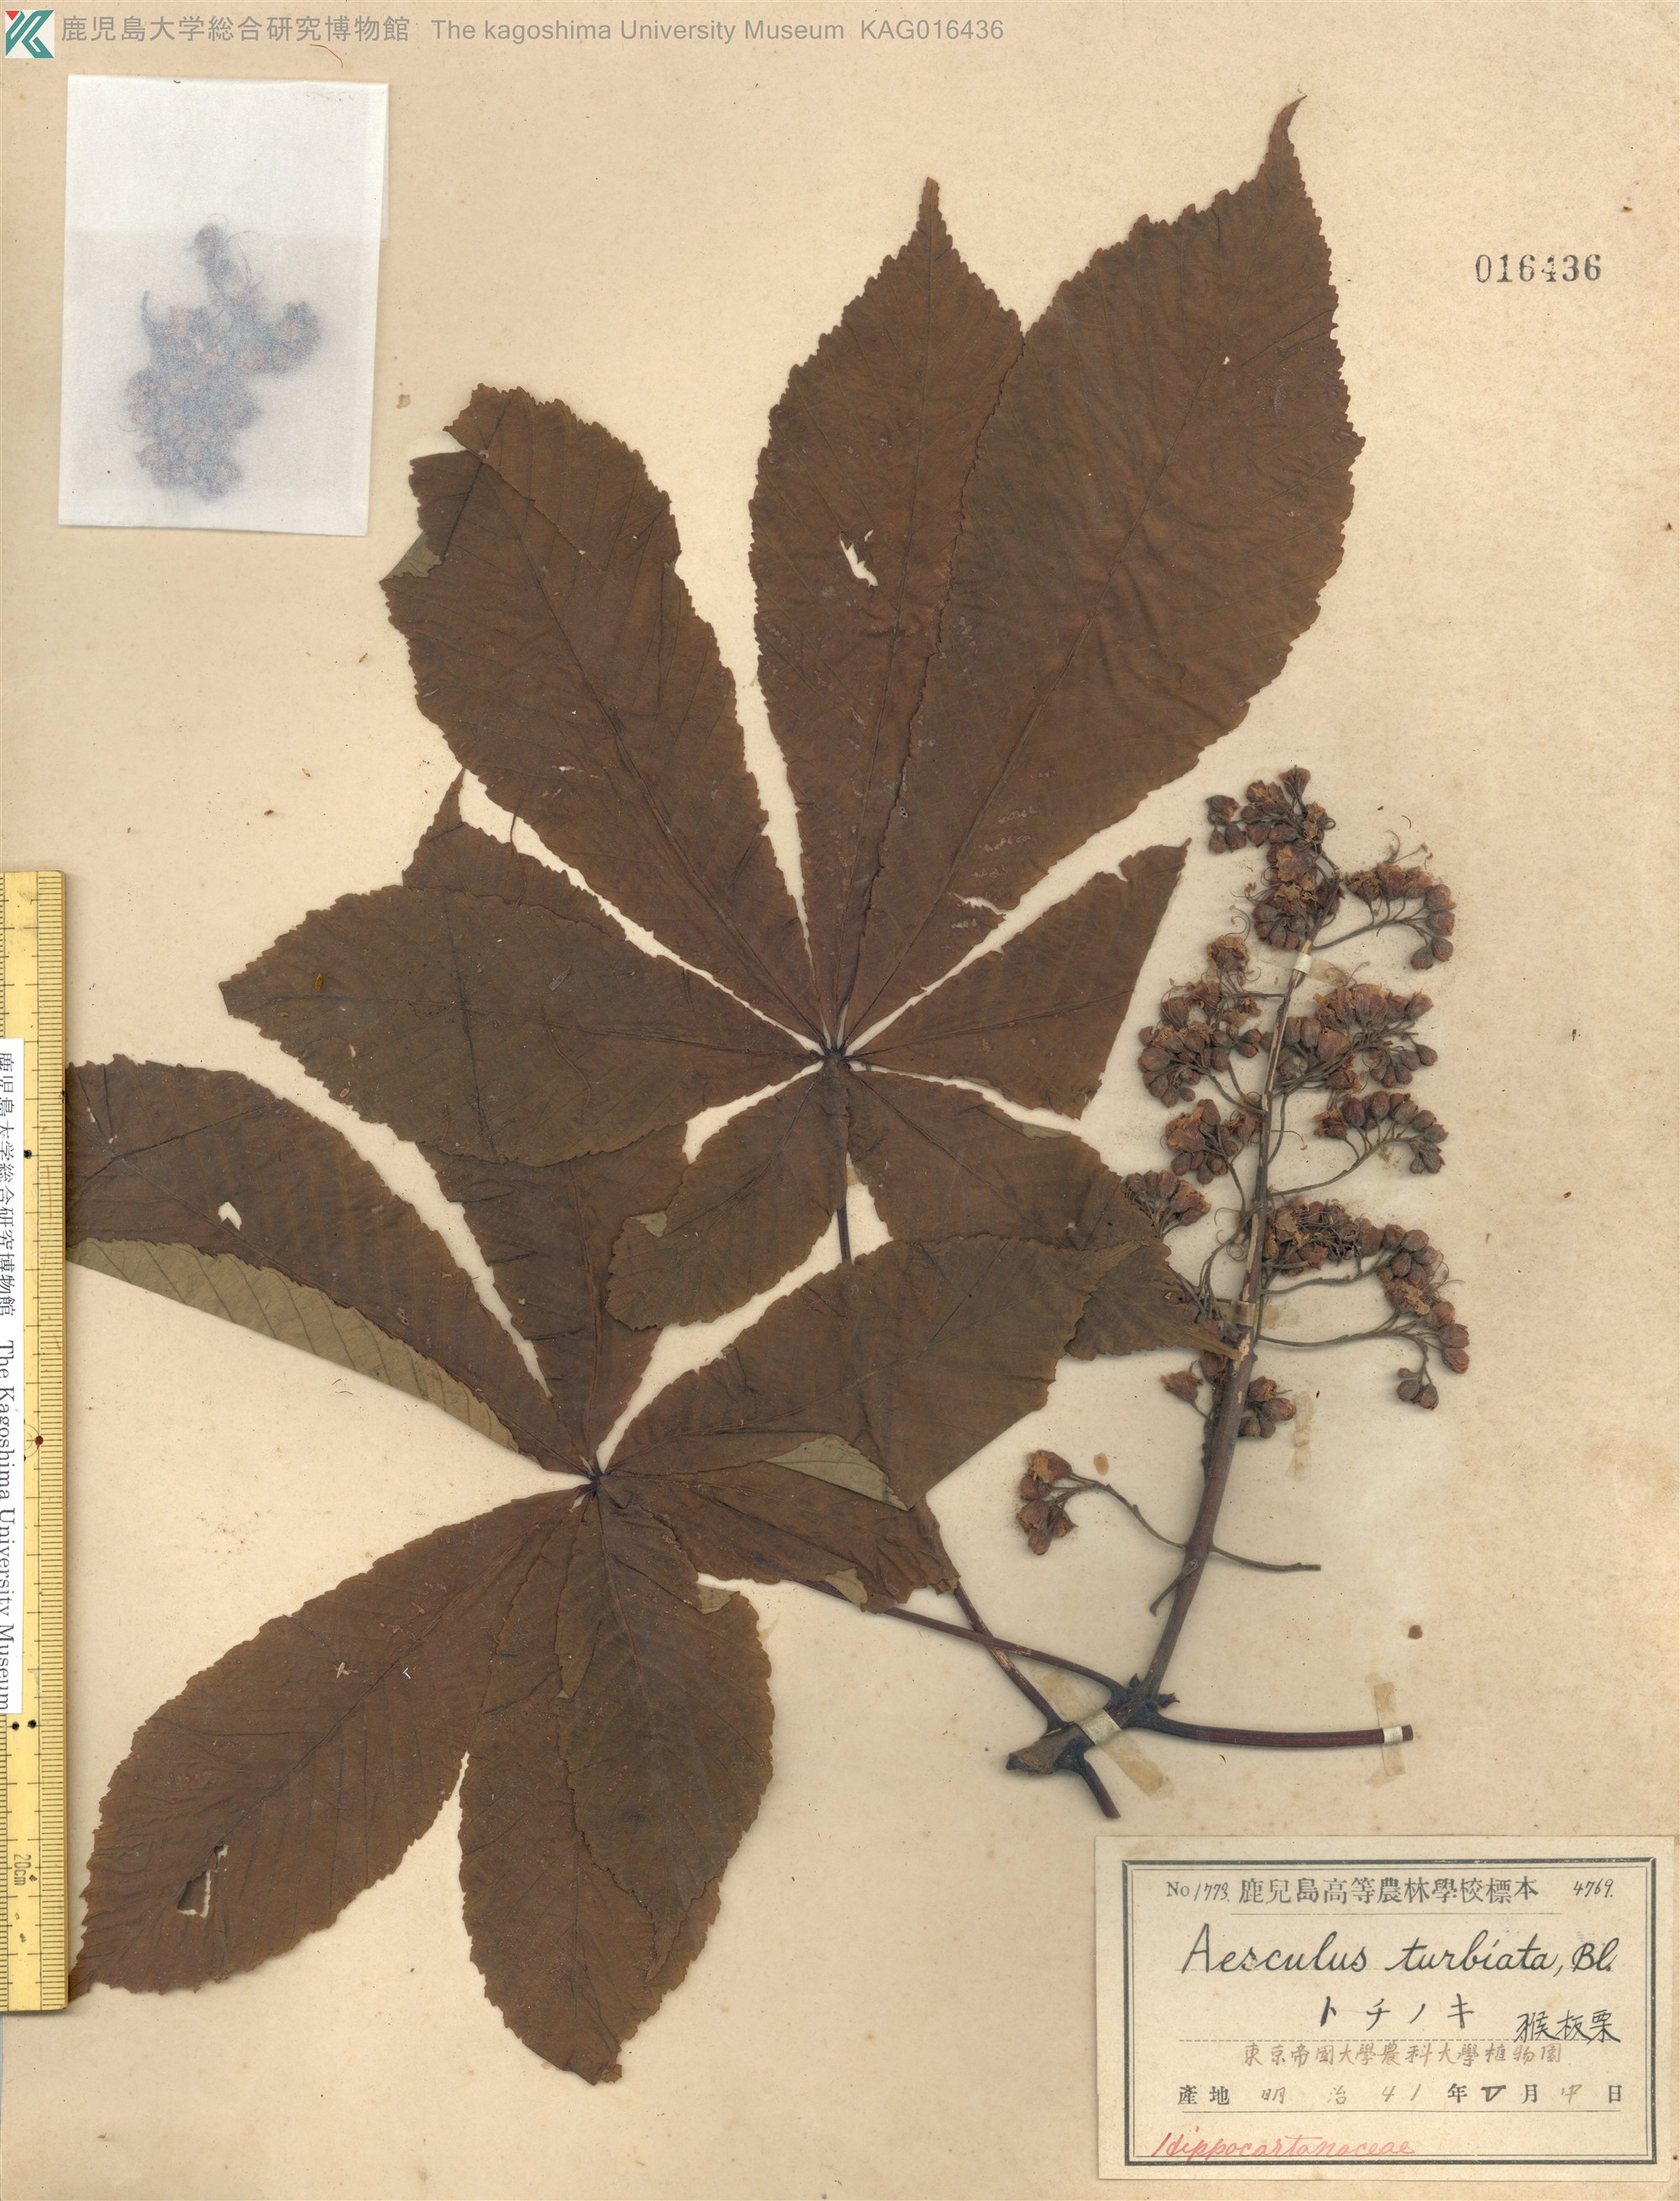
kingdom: Plantae
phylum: Tracheophyta
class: Magnoliopsida
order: Sapindales
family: Sapindaceae
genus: Aesculus
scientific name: Aesculus turbinata
